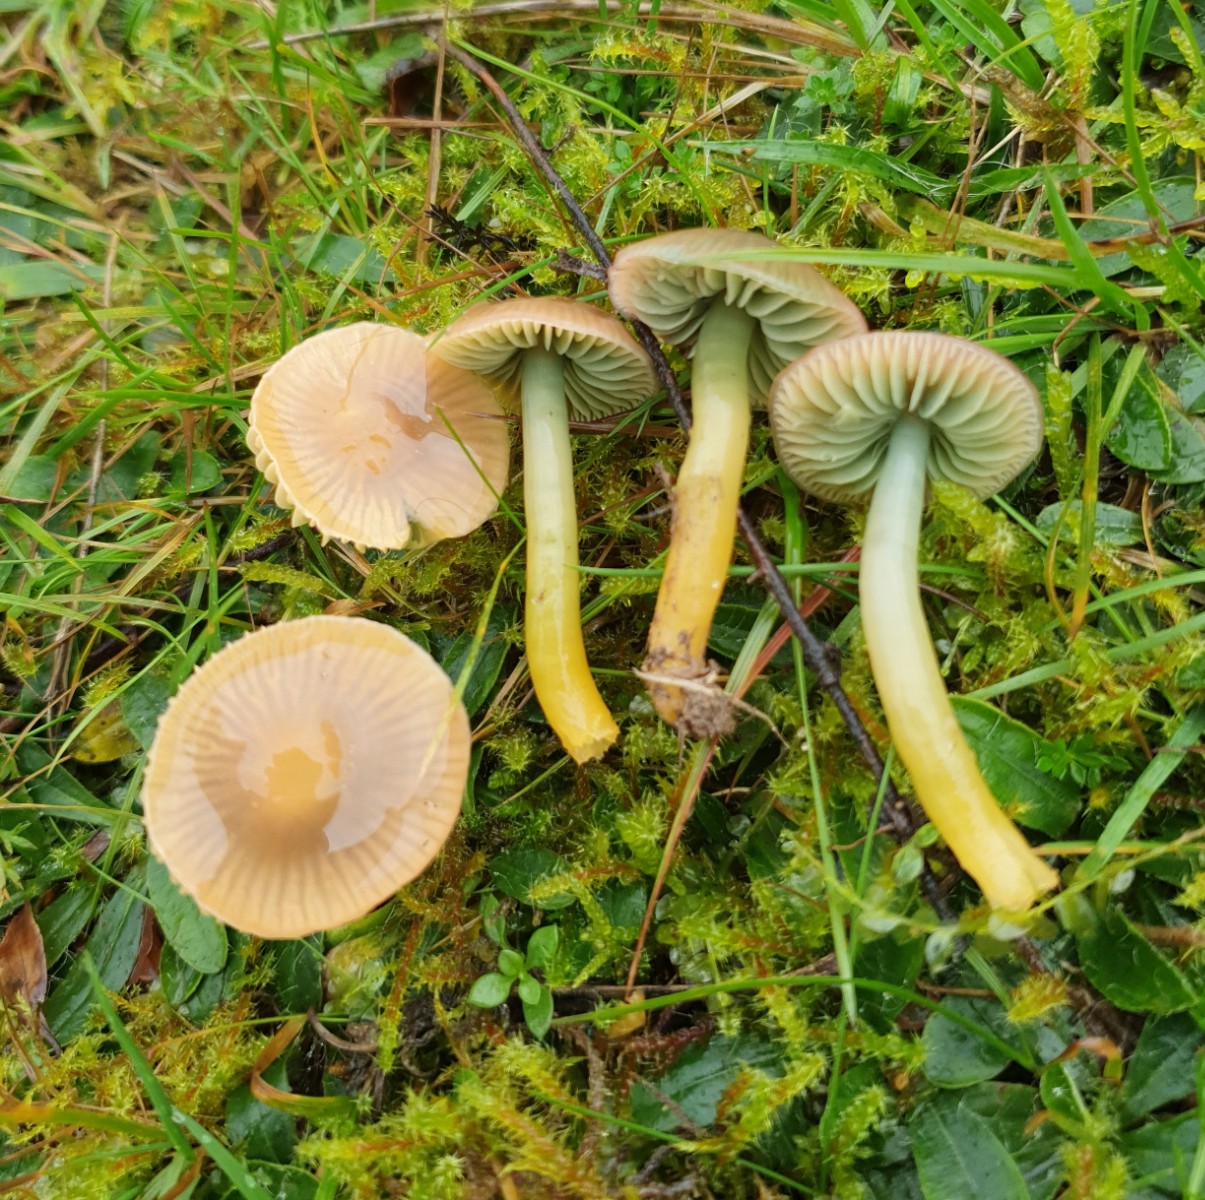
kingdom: Fungi
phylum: Basidiomycota
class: Agaricomycetes
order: Agaricales
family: Hygrophoraceae
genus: Gliophorus
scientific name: Gliophorus psittacinus
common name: papegøje-vokshat
